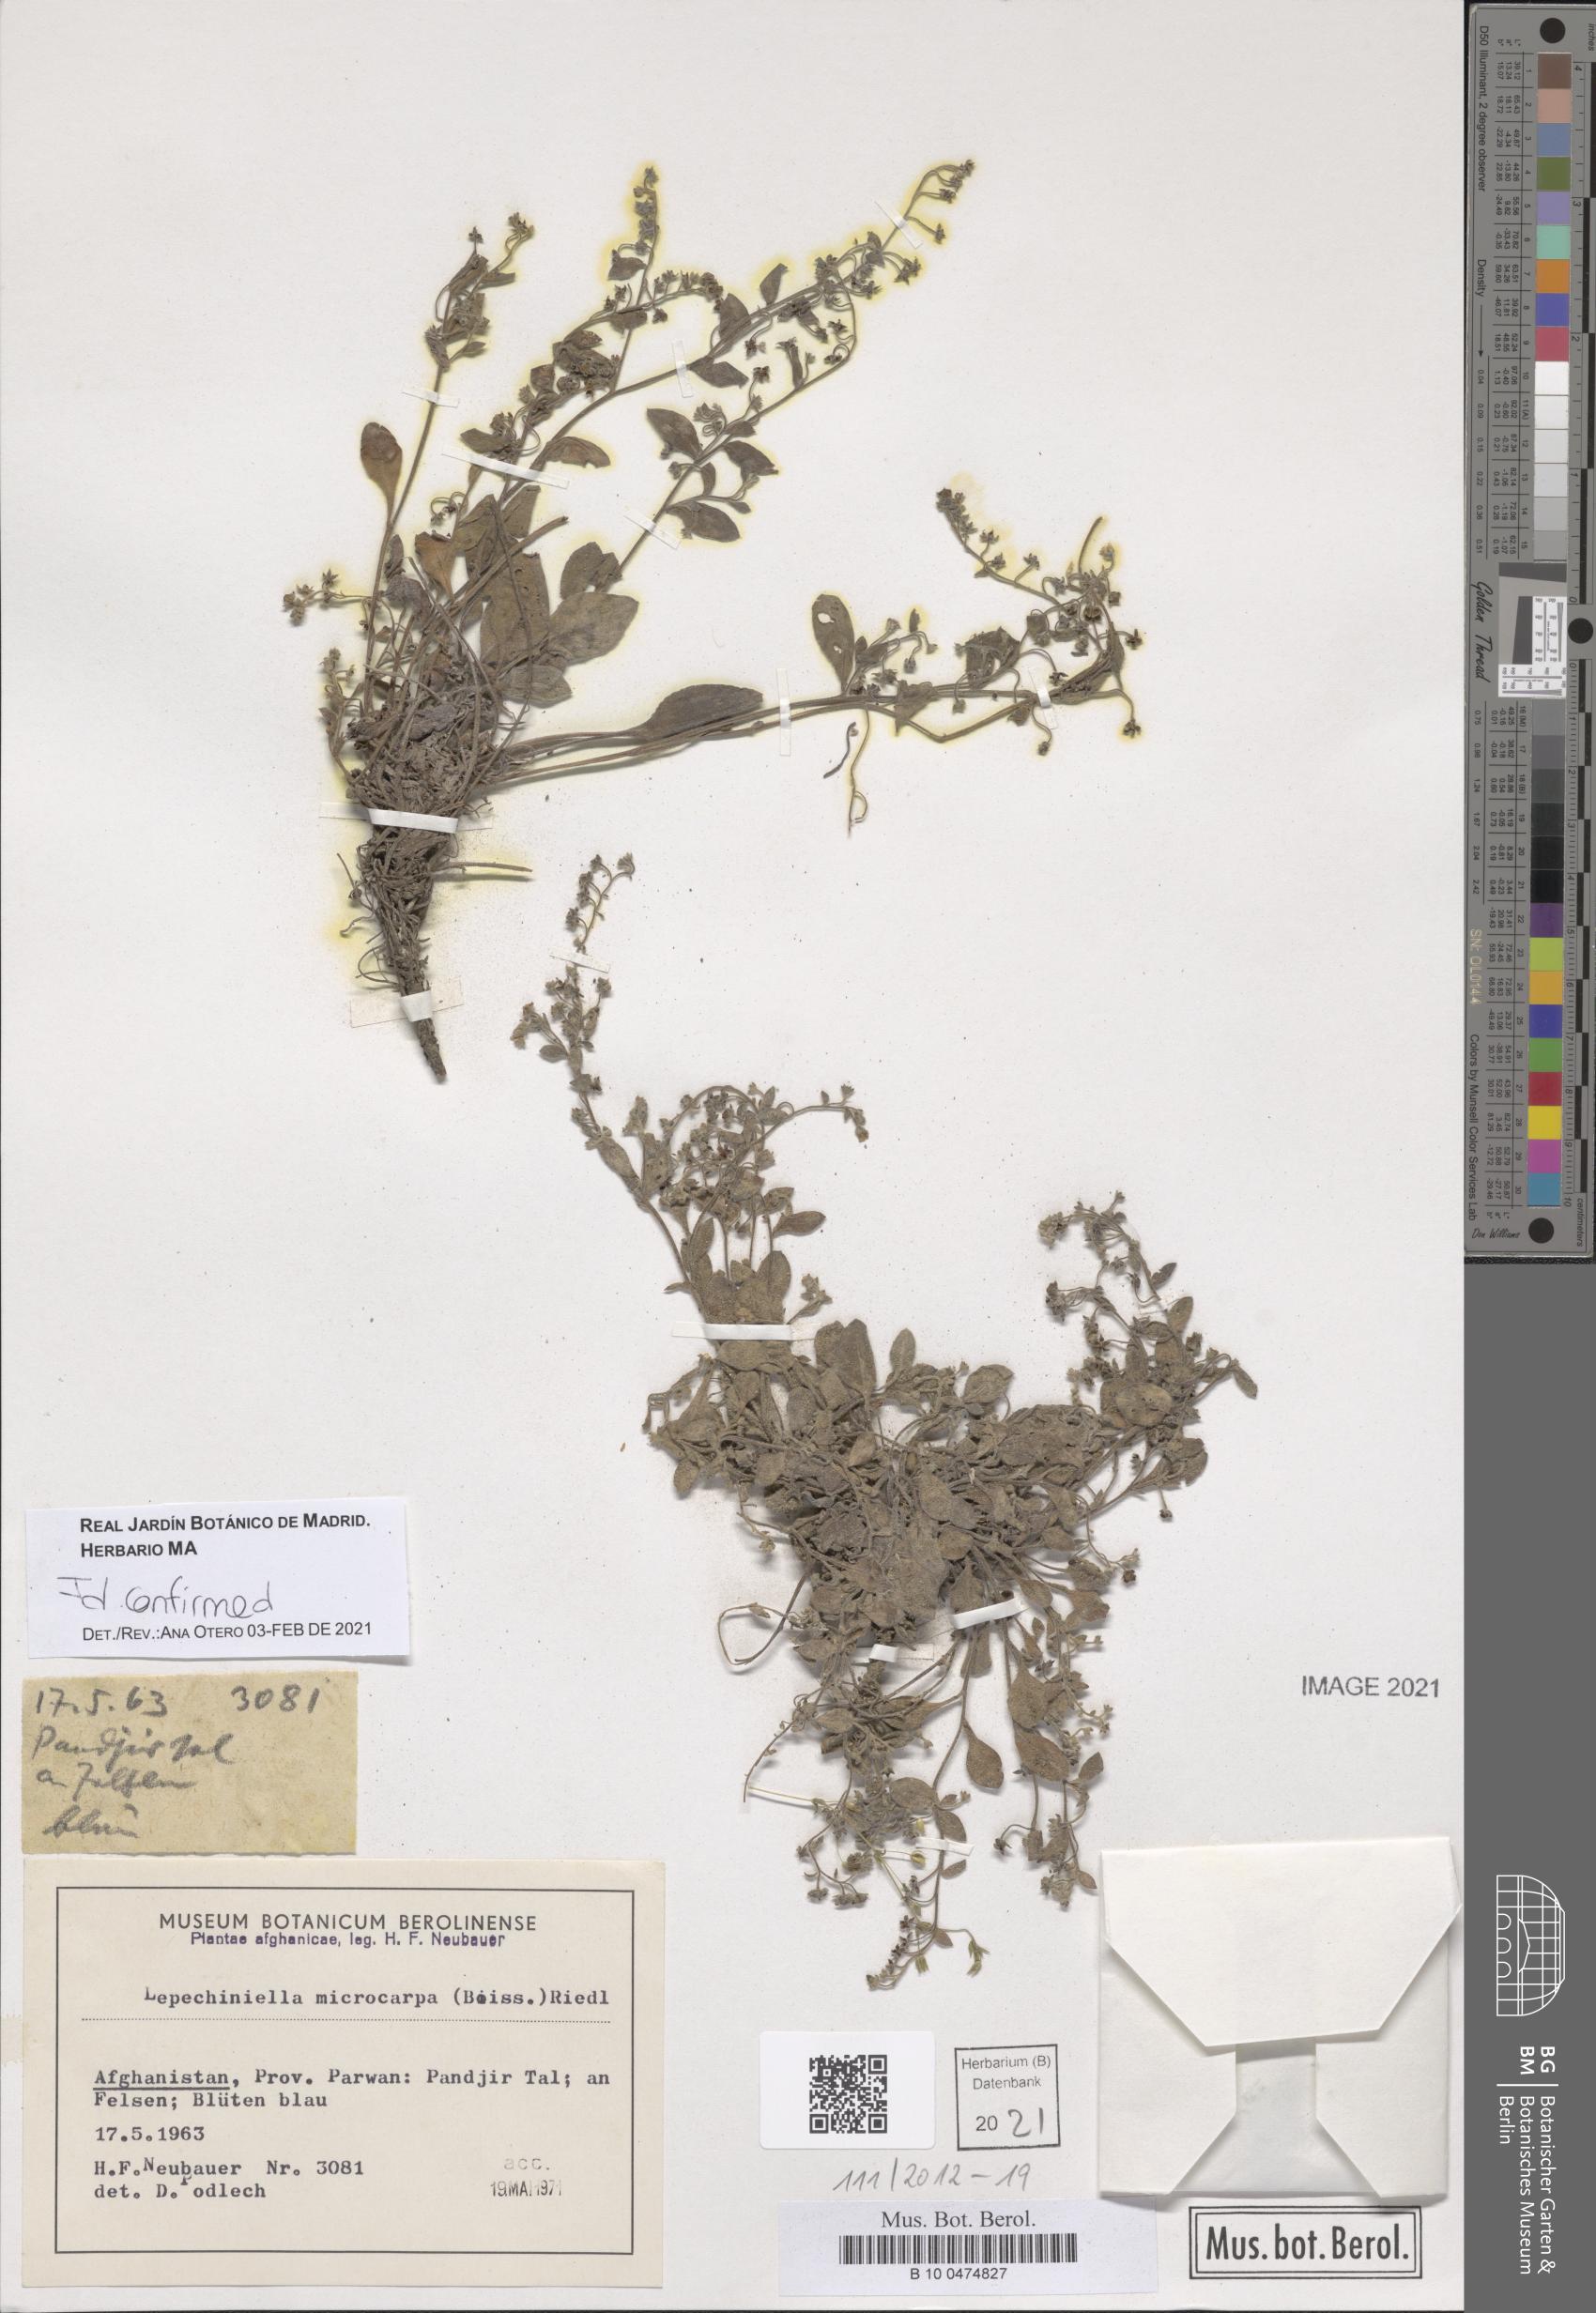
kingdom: Plantae
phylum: Tracheophyta
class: Magnoliopsida
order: Boraginales
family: Boraginaceae
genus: Lepechiniella
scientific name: Lepechiniella microcarpa
